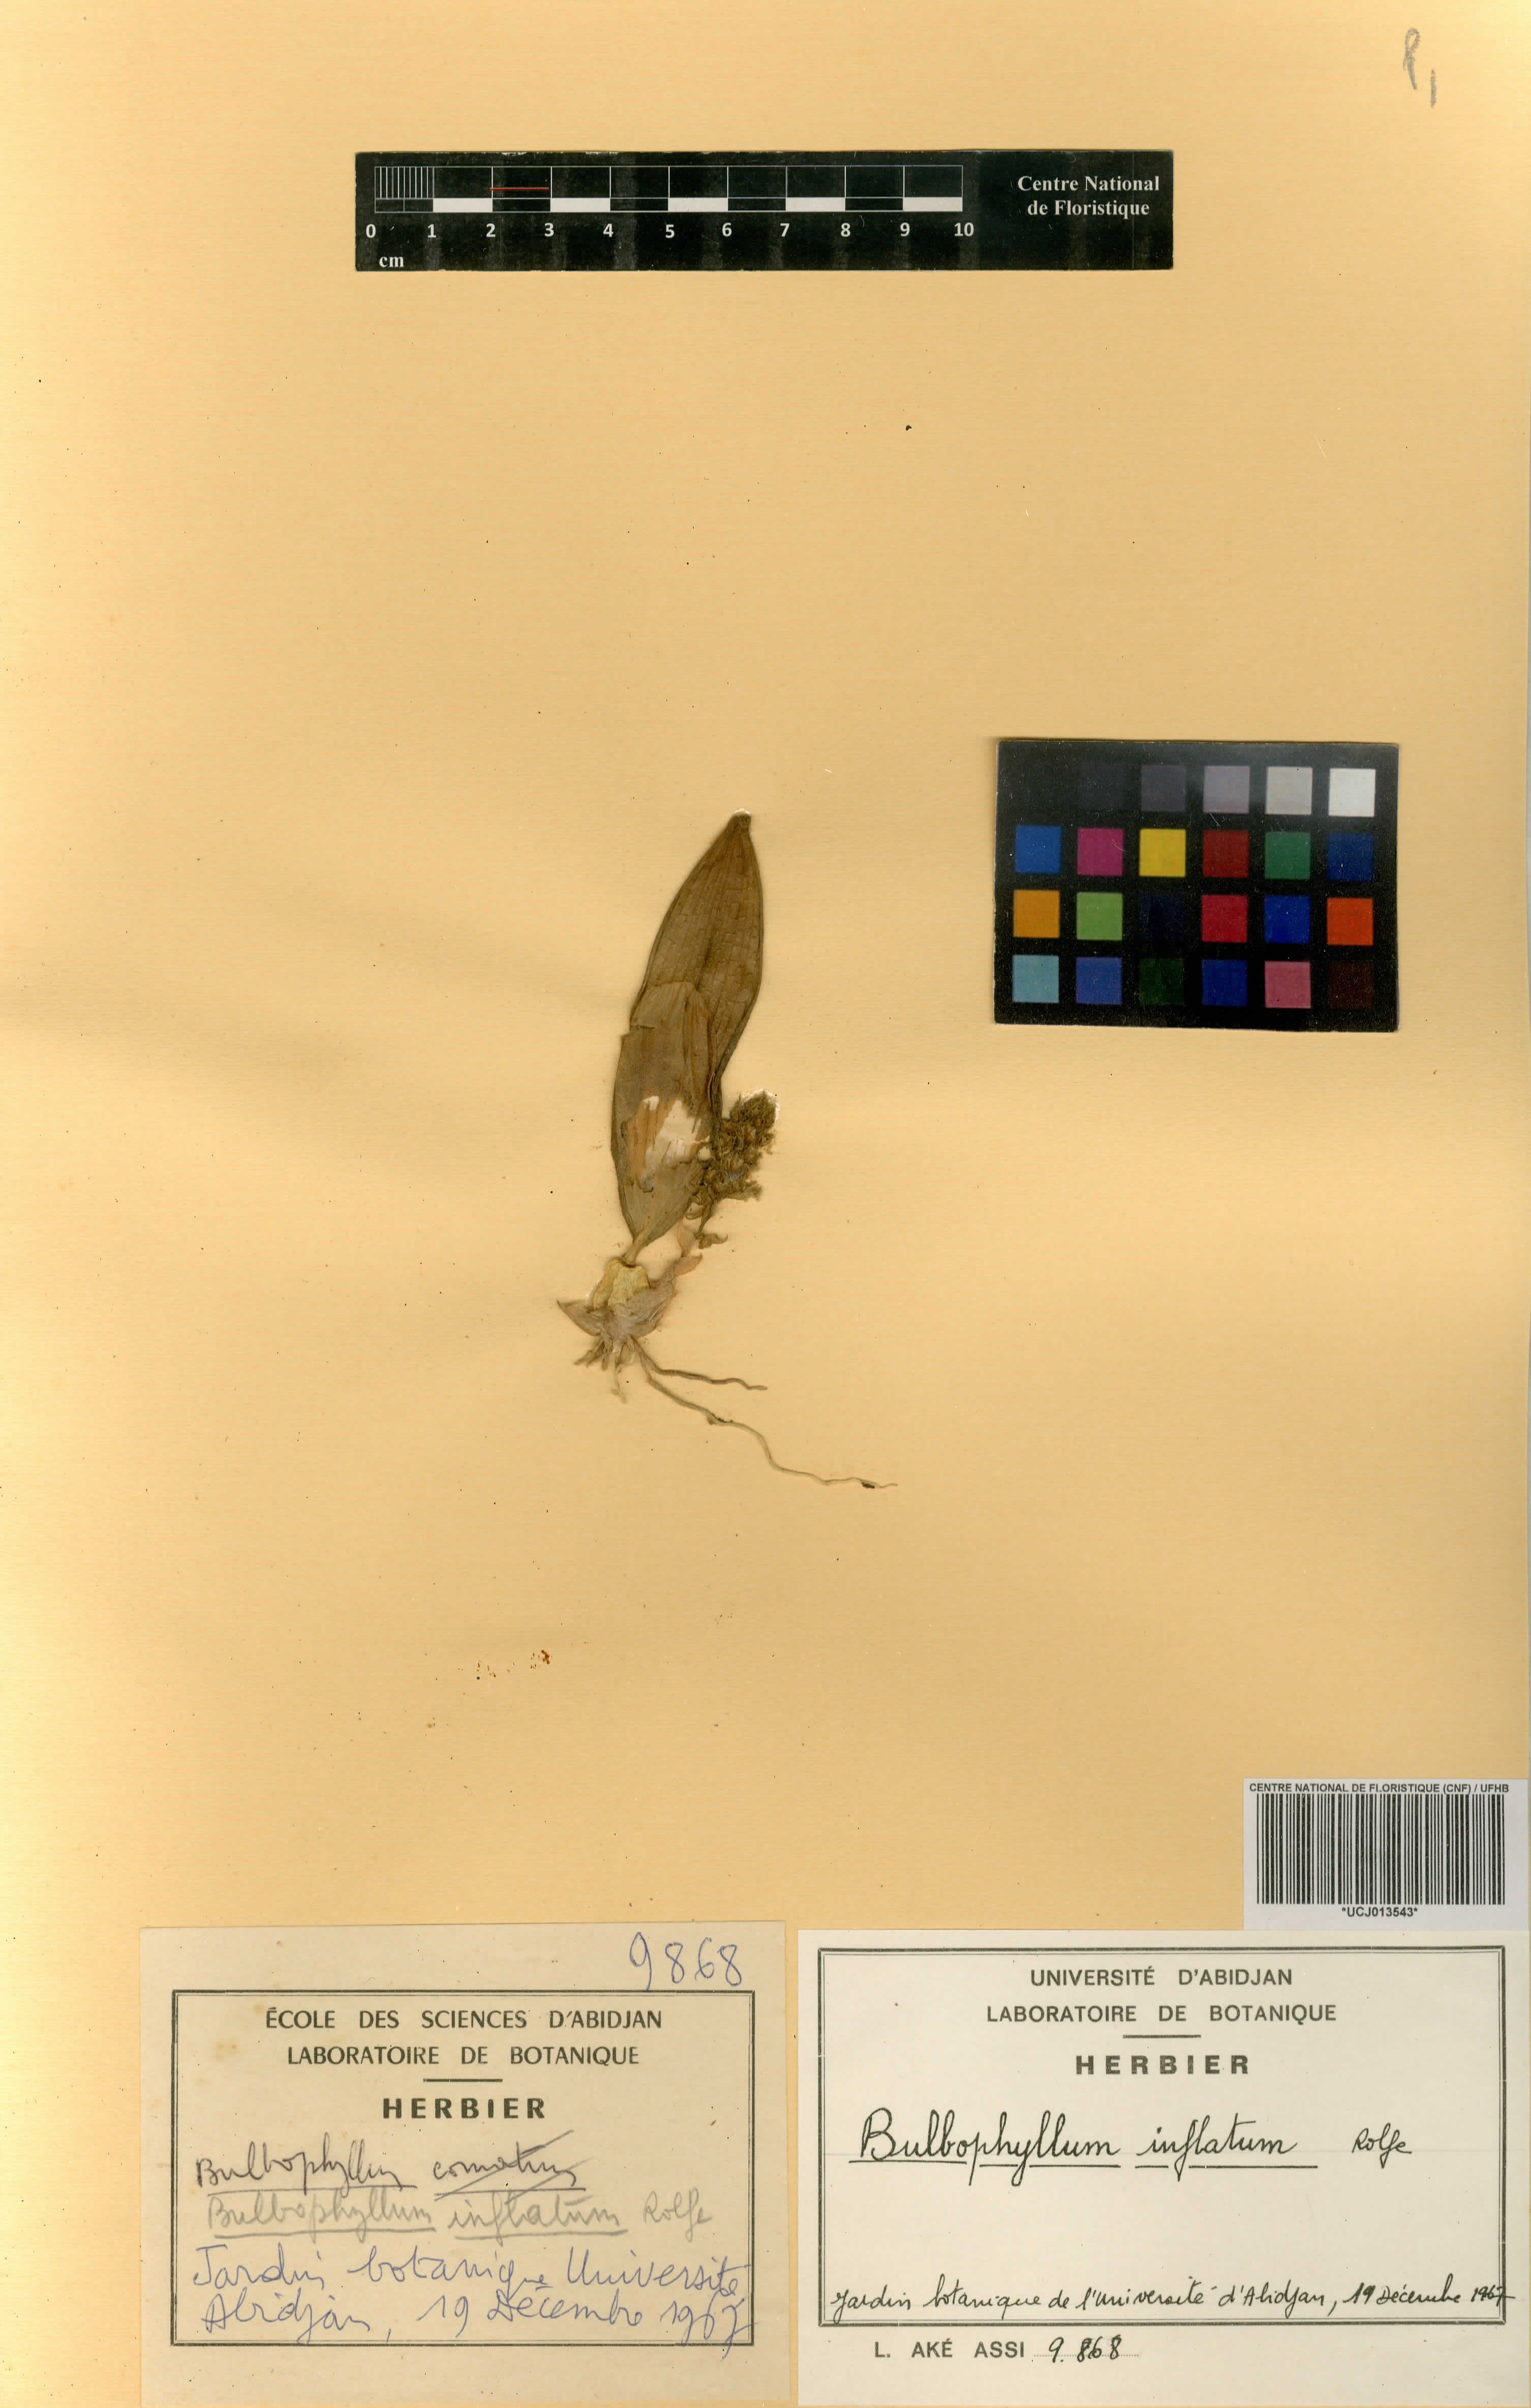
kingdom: Plantae
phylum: Tracheophyta
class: Liliopsida
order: Asparagales
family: Orchidaceae
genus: Bulbophyllum
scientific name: Bulbophyllum comatum
